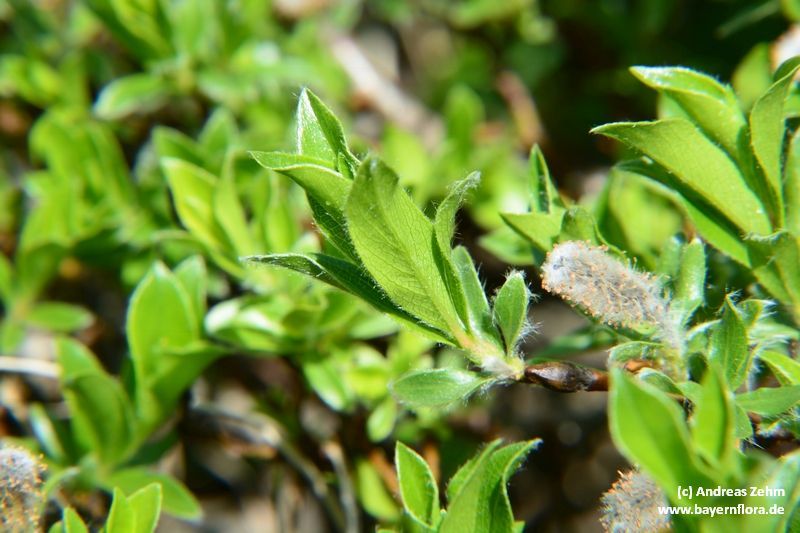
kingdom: Plantae
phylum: Tracheophyta
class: Magnoliopsida
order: Malpighiales
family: Salicaceae
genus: Salix
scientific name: Salix alpina
